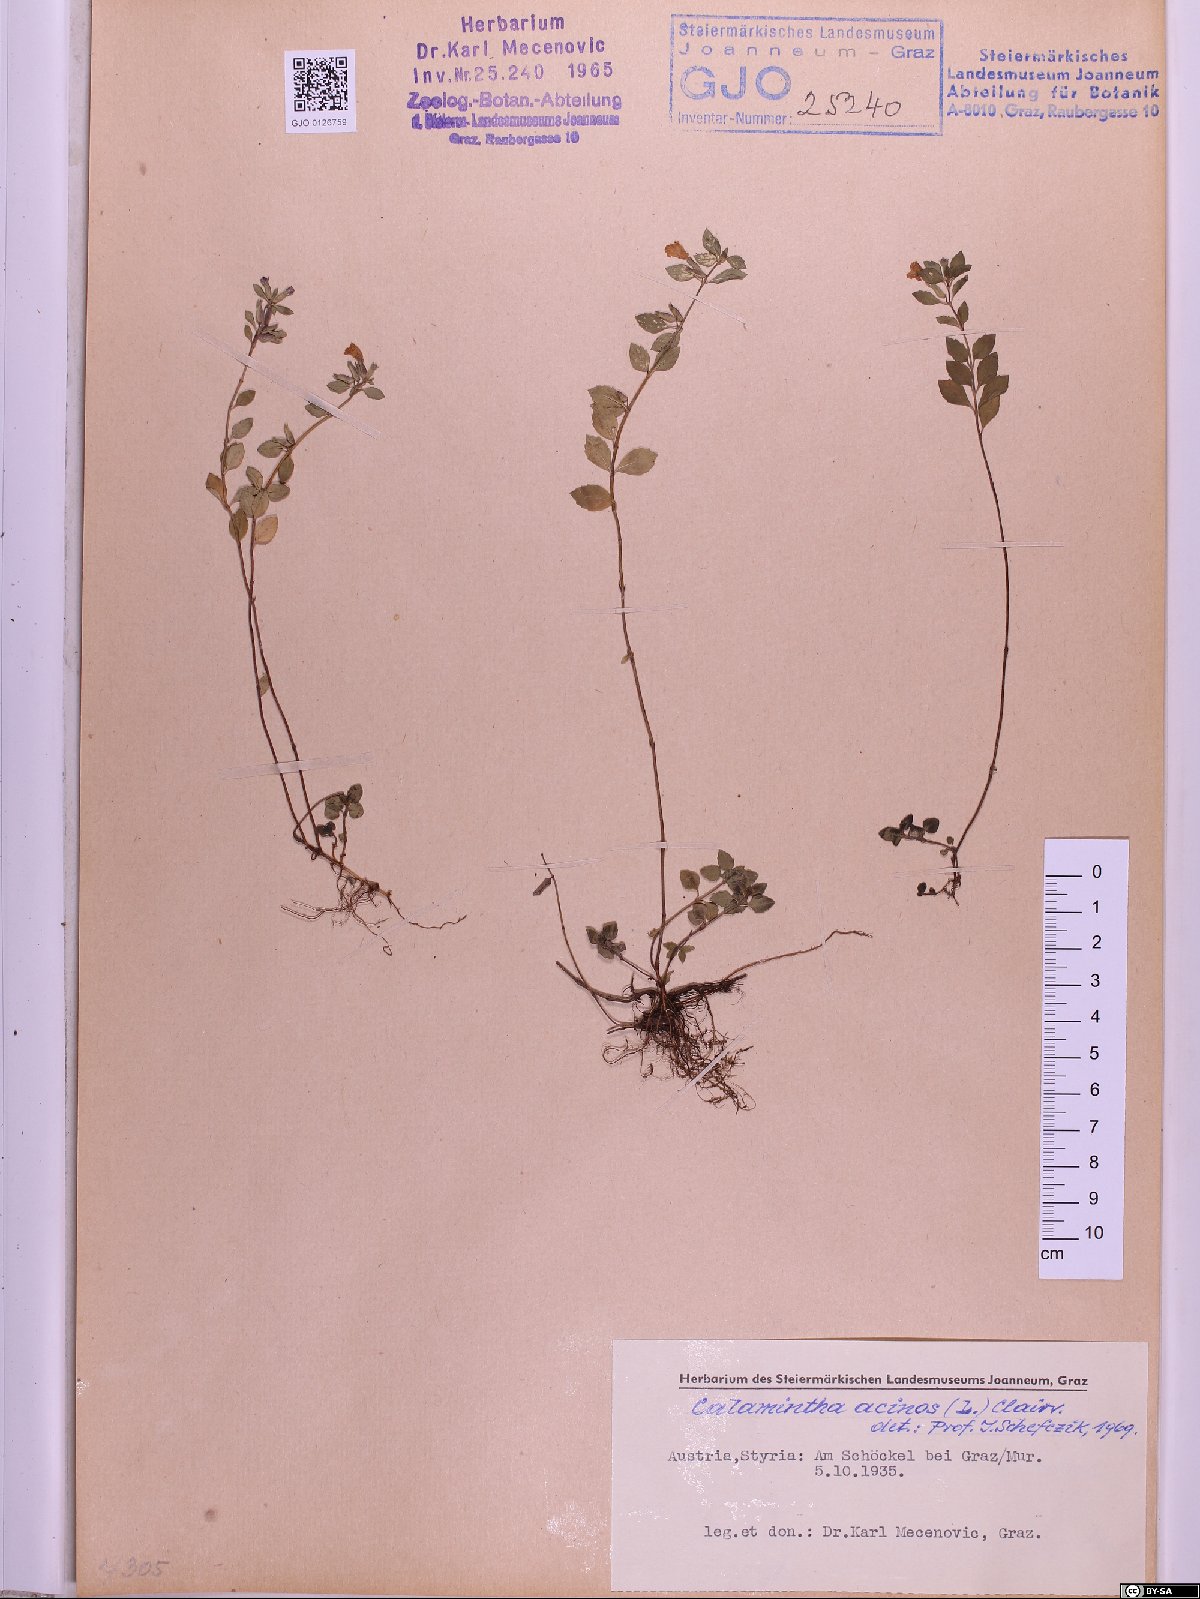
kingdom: Plantae
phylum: Tracheophyta
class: Magnoliopsida
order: Lamiales
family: Lamiaceae
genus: Clinopodium
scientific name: Clinopodium acinos
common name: Basil thyme
